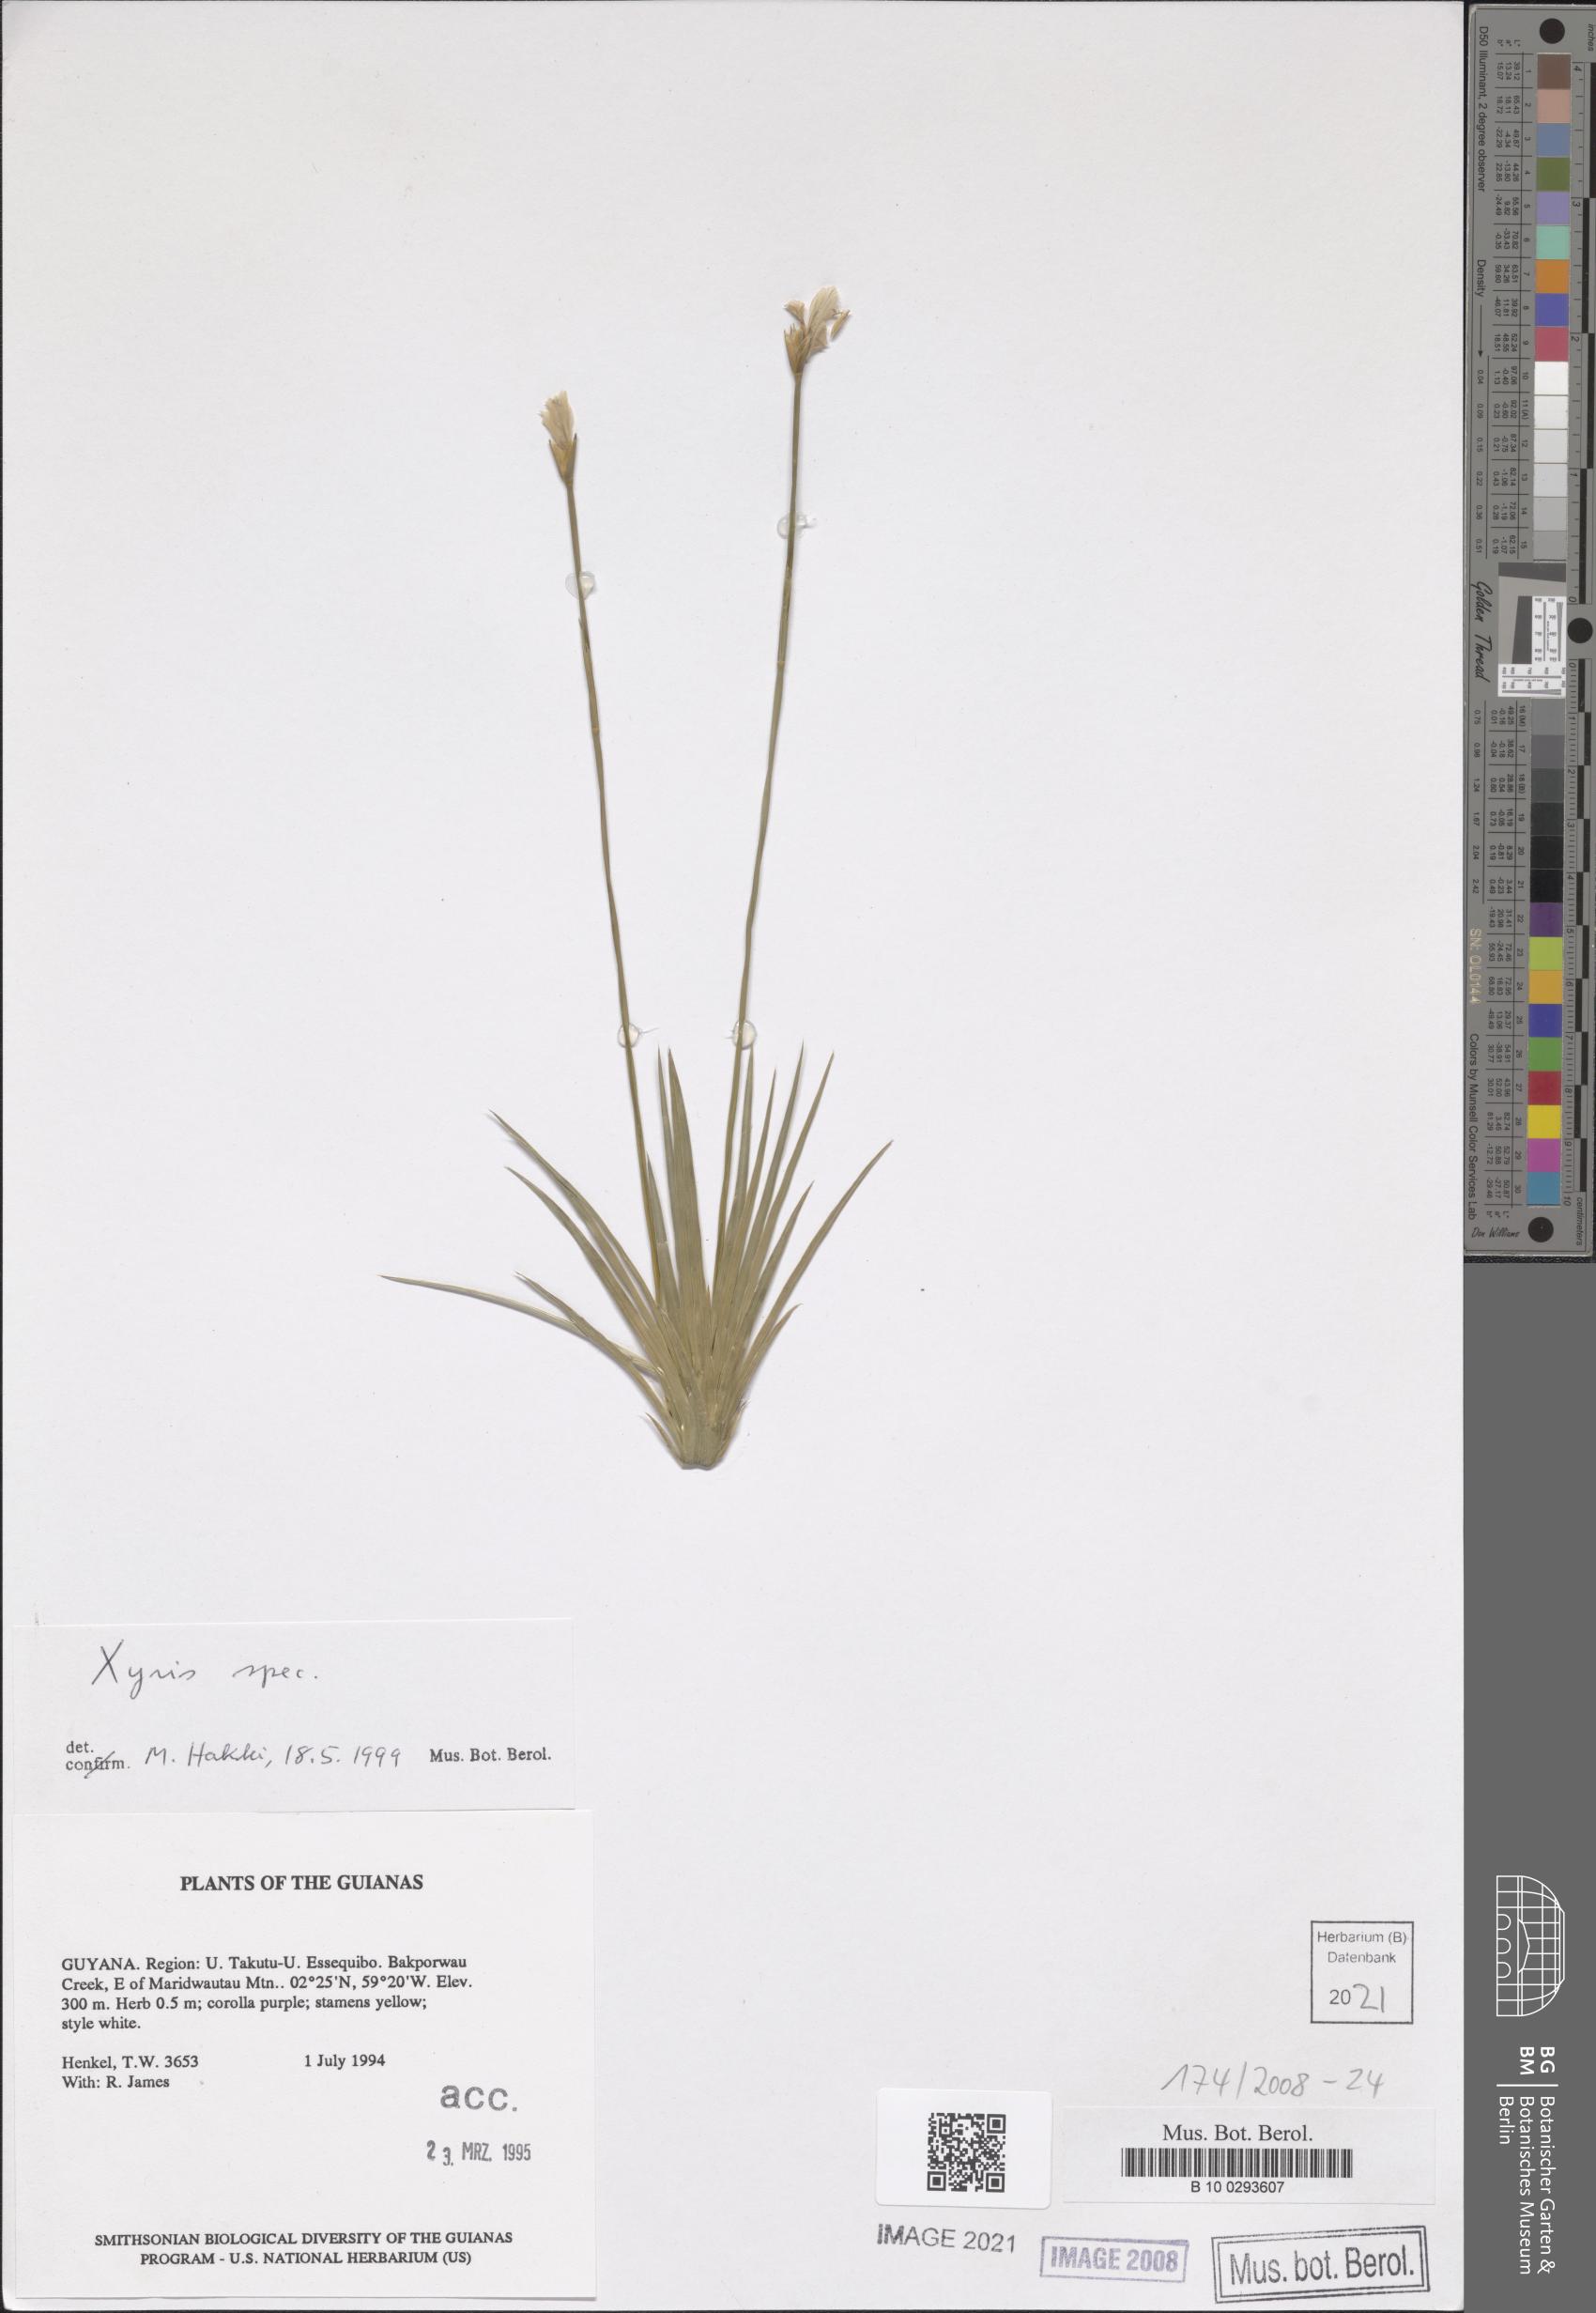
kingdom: Plantae
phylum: Tracheophyta
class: Liliopsida
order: Poales
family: Xyridaceae
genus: Xyris
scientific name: Xyris
